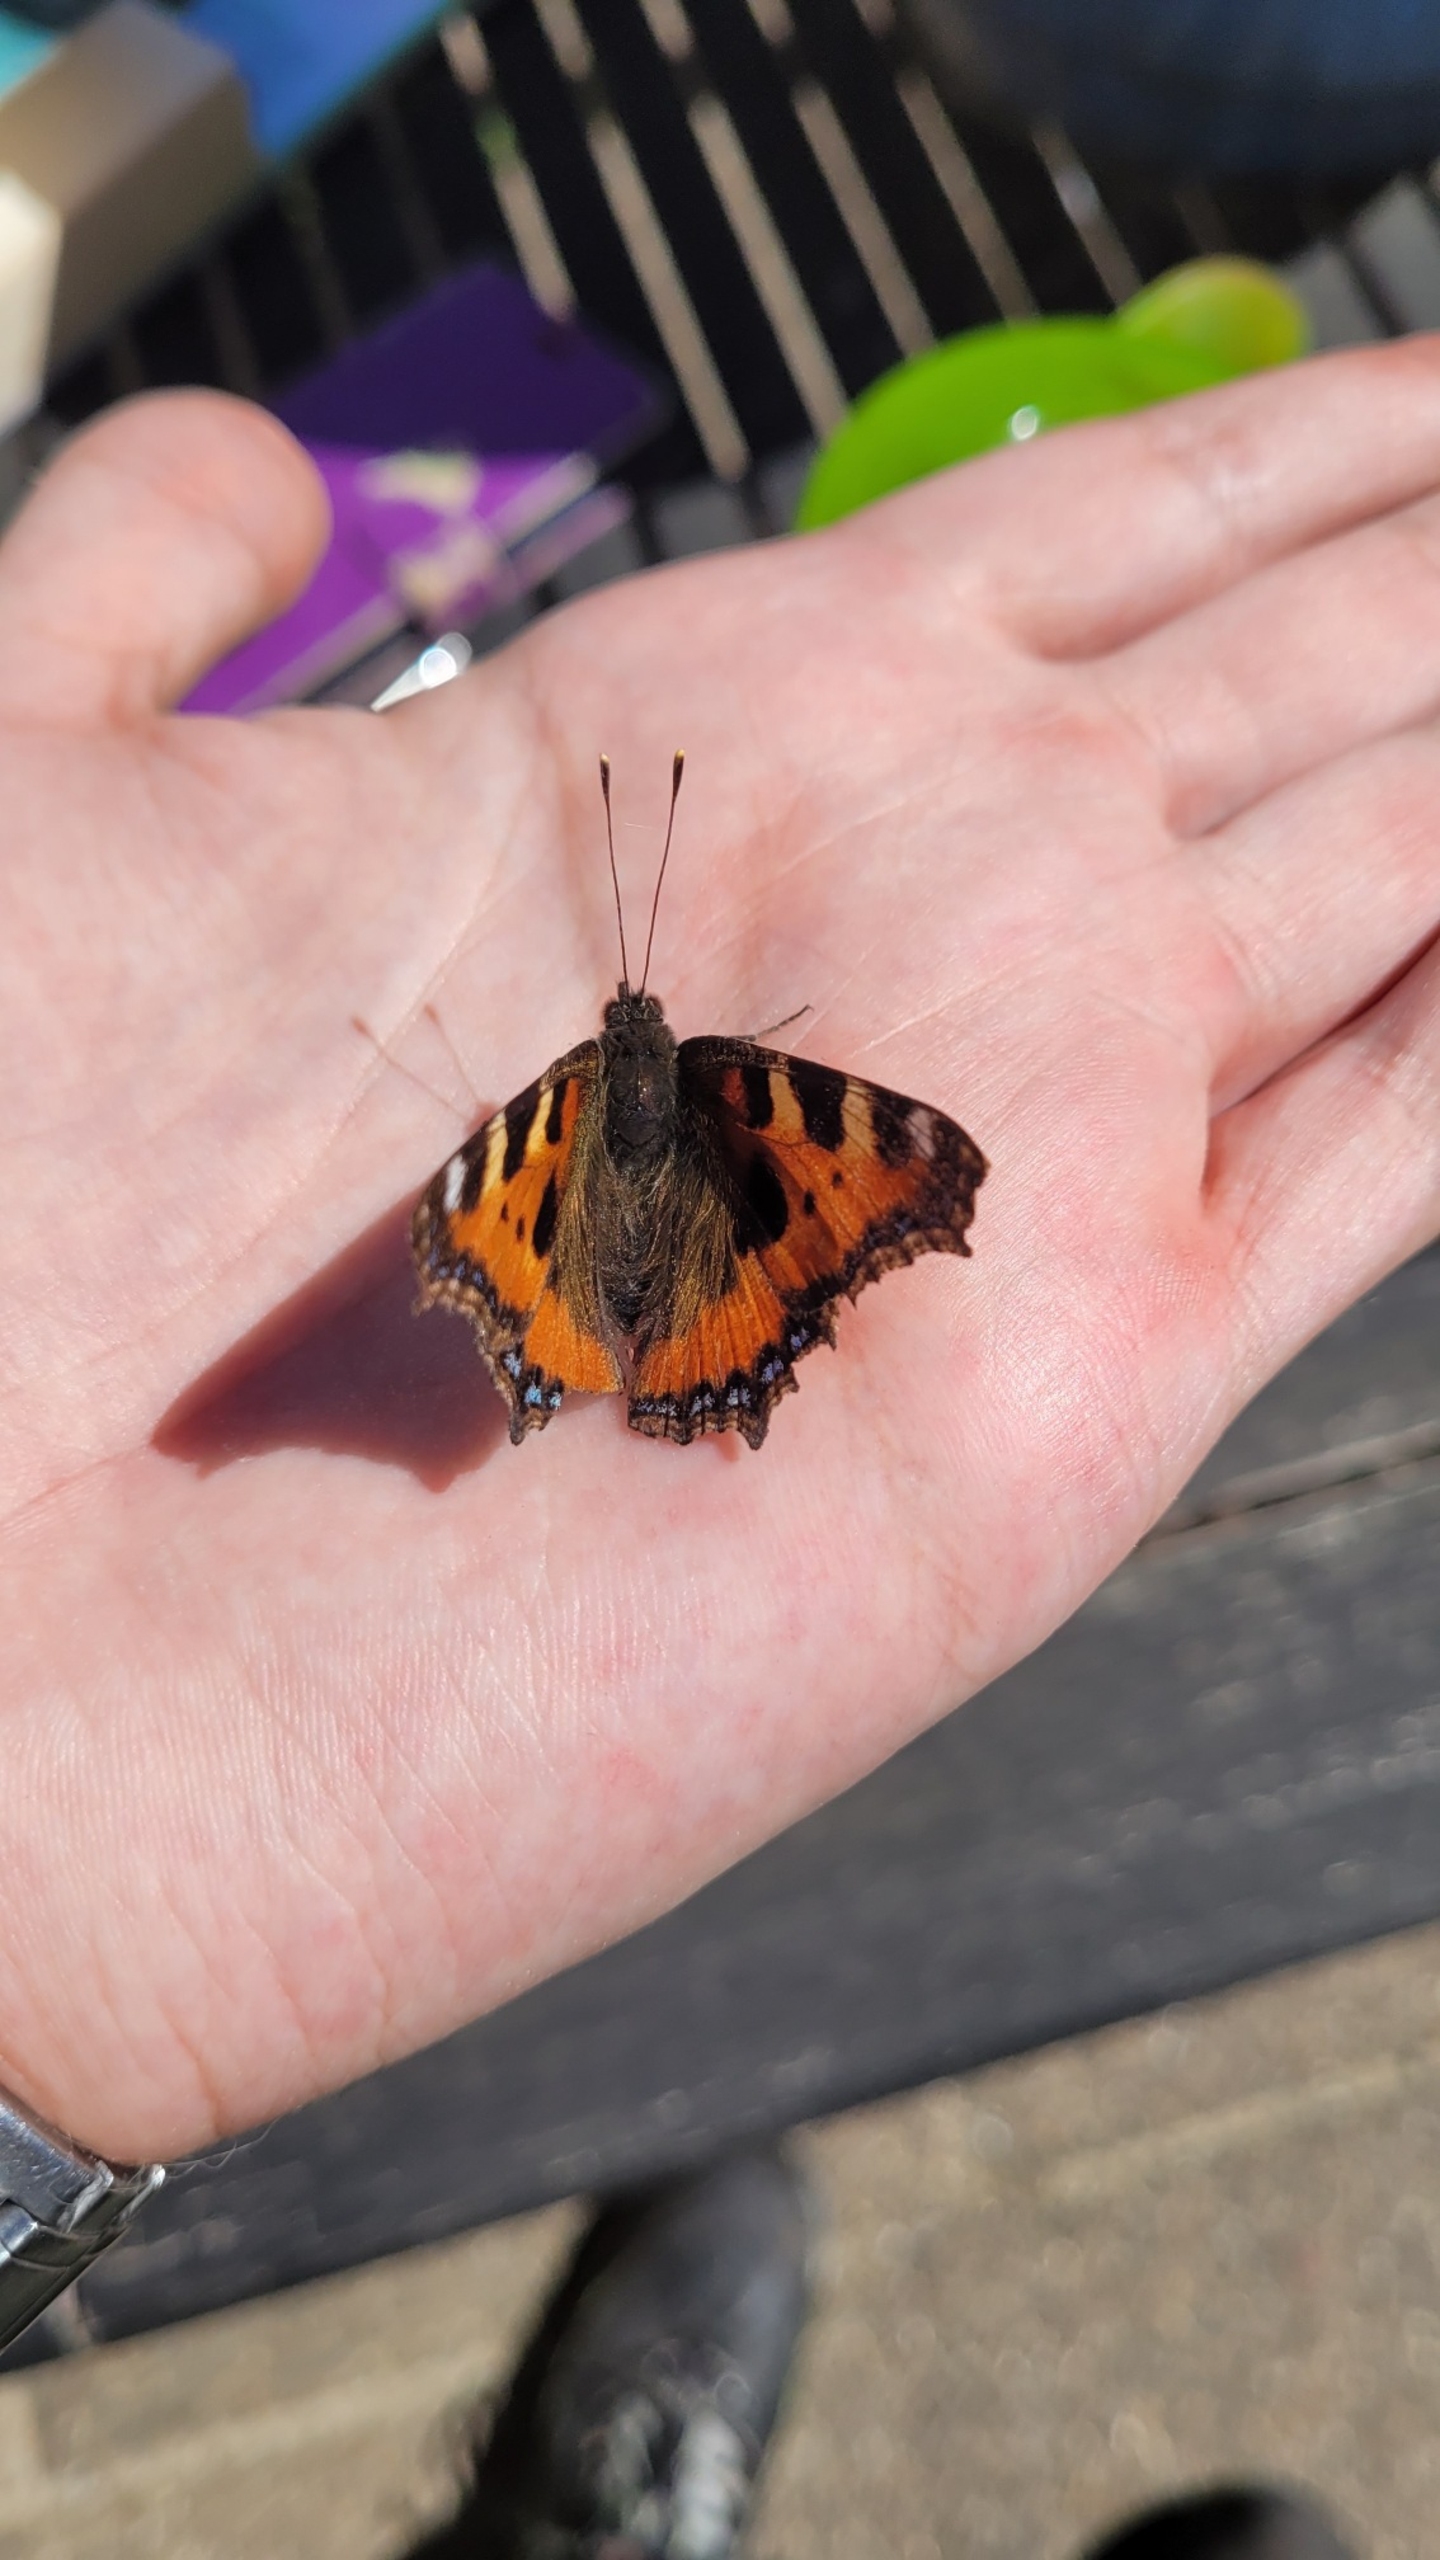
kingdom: Animalia
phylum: Arthropoda
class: Insecta
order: Lepidoptera
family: Nymphalidae
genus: Aglais
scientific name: Aglais urticae
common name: Nældens takvinge
